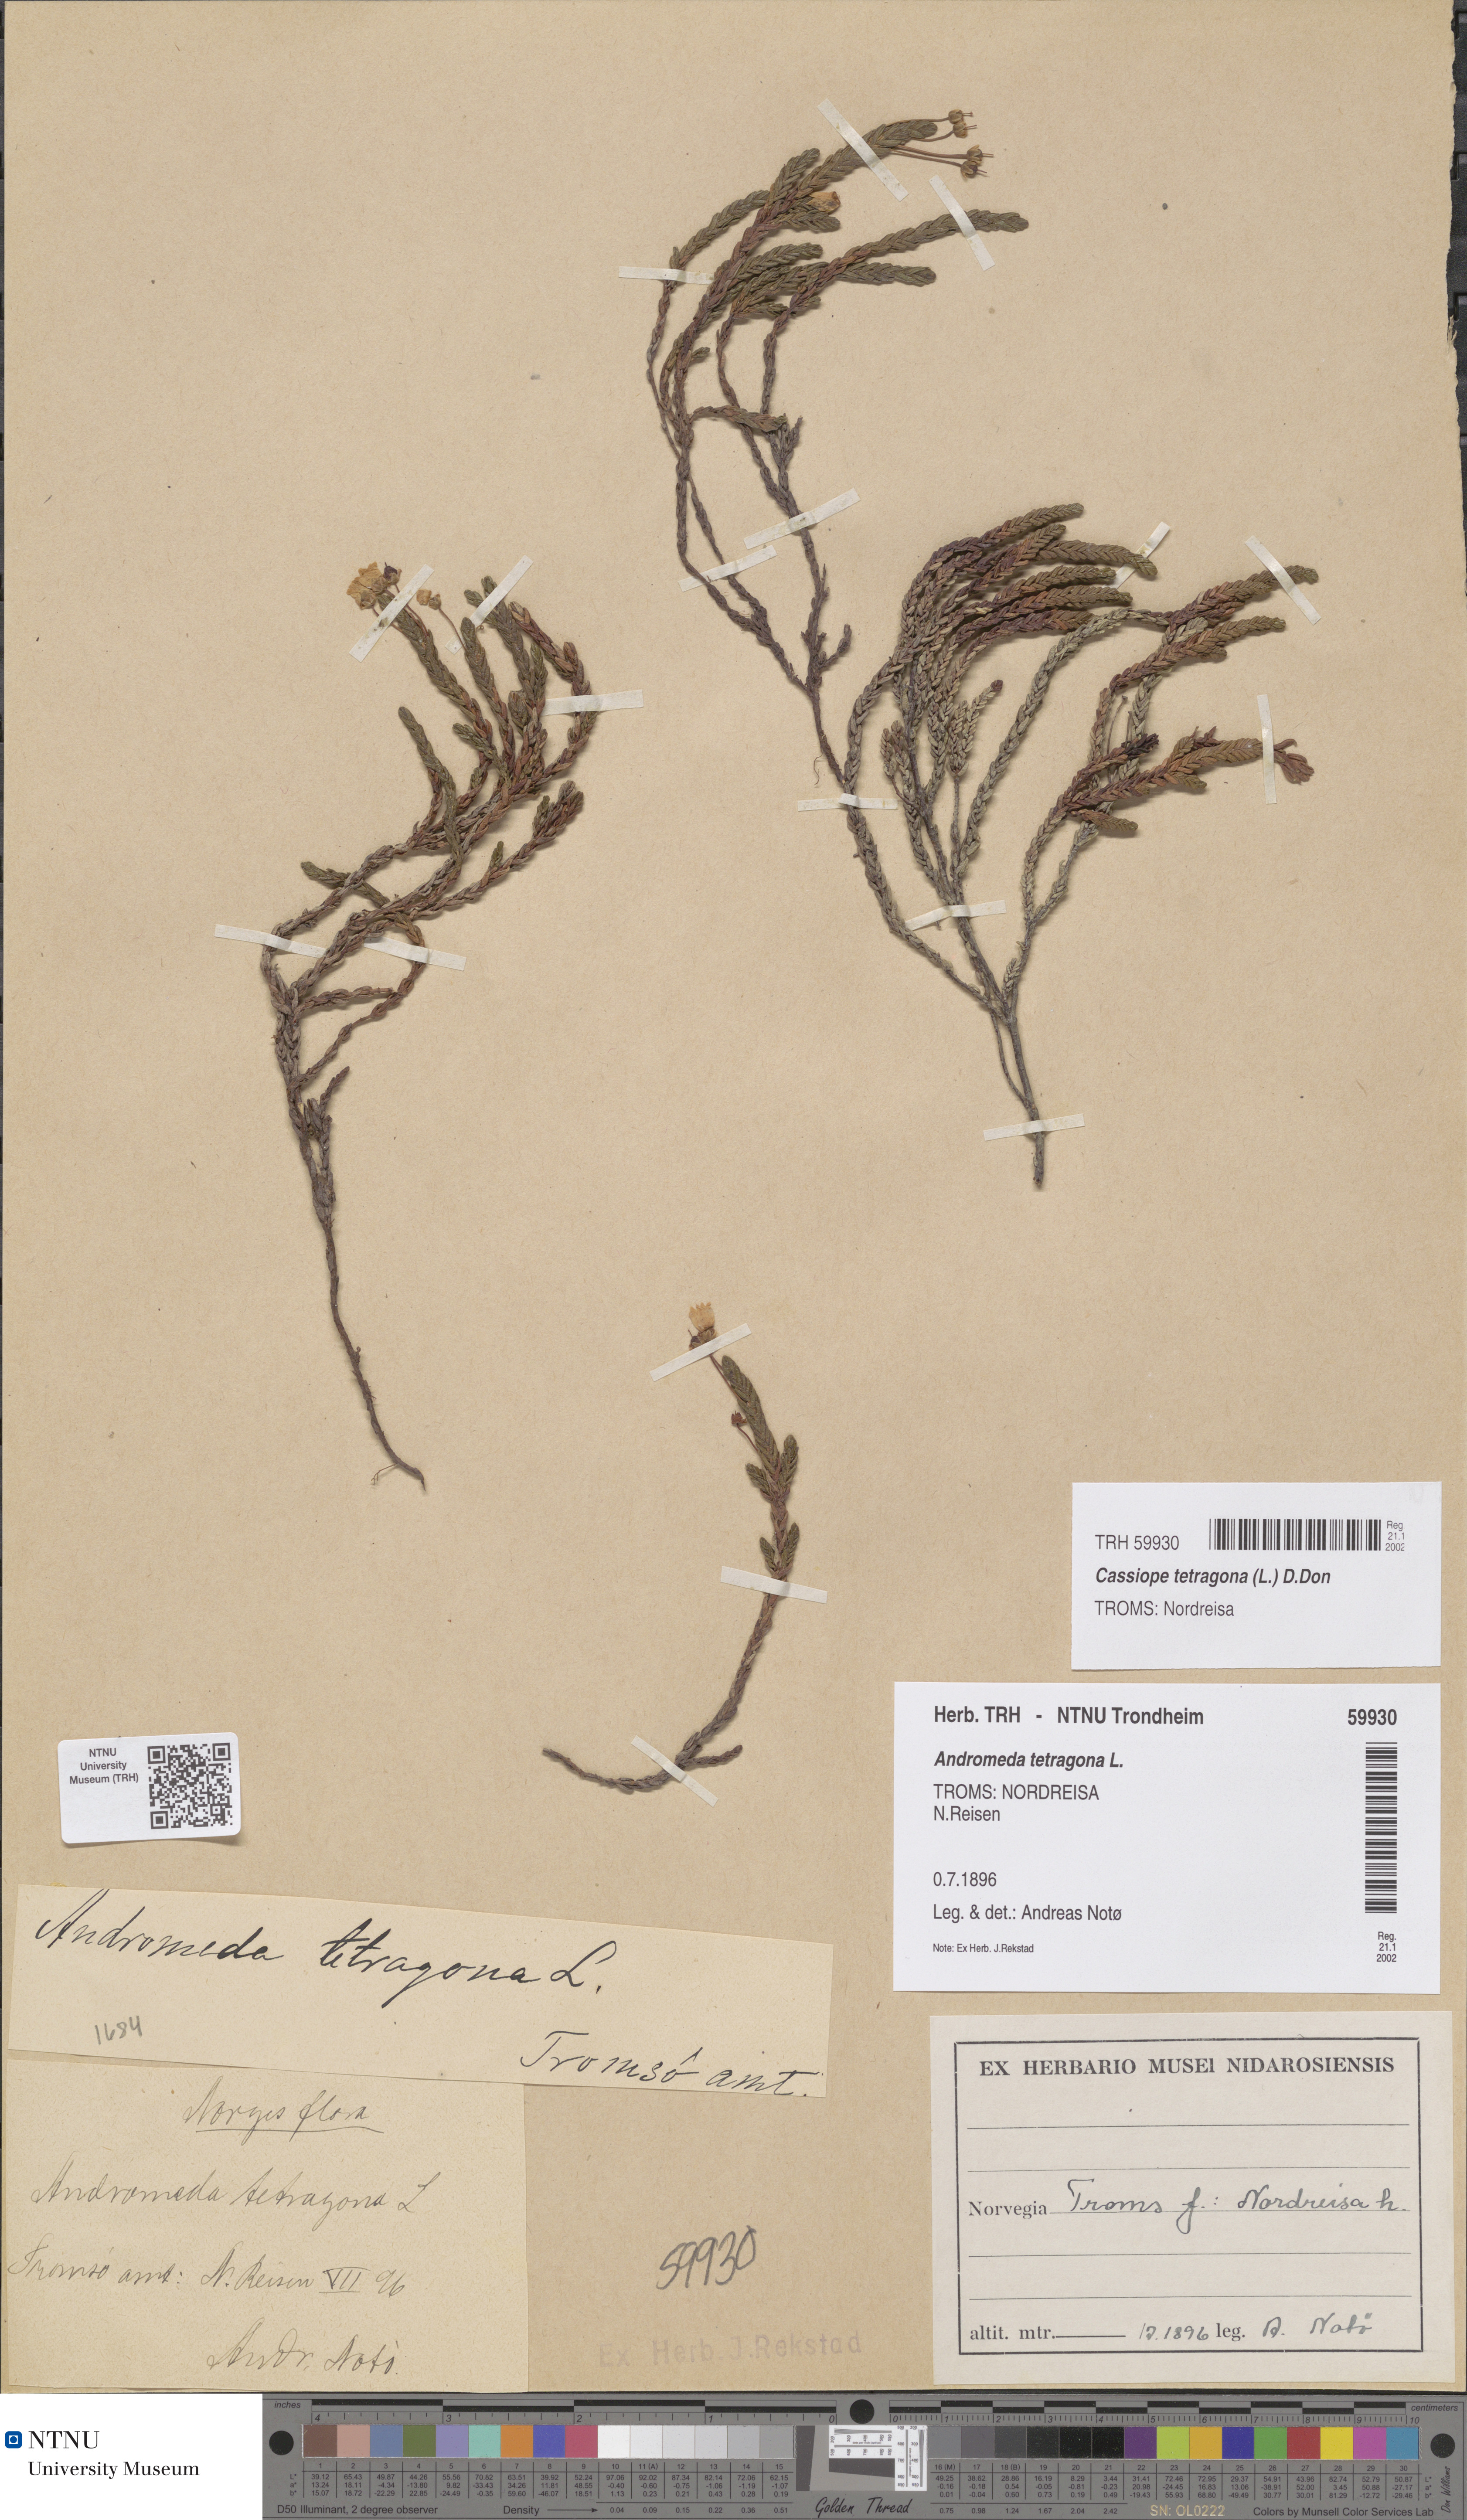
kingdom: Plantae
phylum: Tracheophyta
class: Magnoliopsida
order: Ericales
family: Ericaceae
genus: Cassiope
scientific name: Cassiope tetragona
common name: Arctic bell heather
